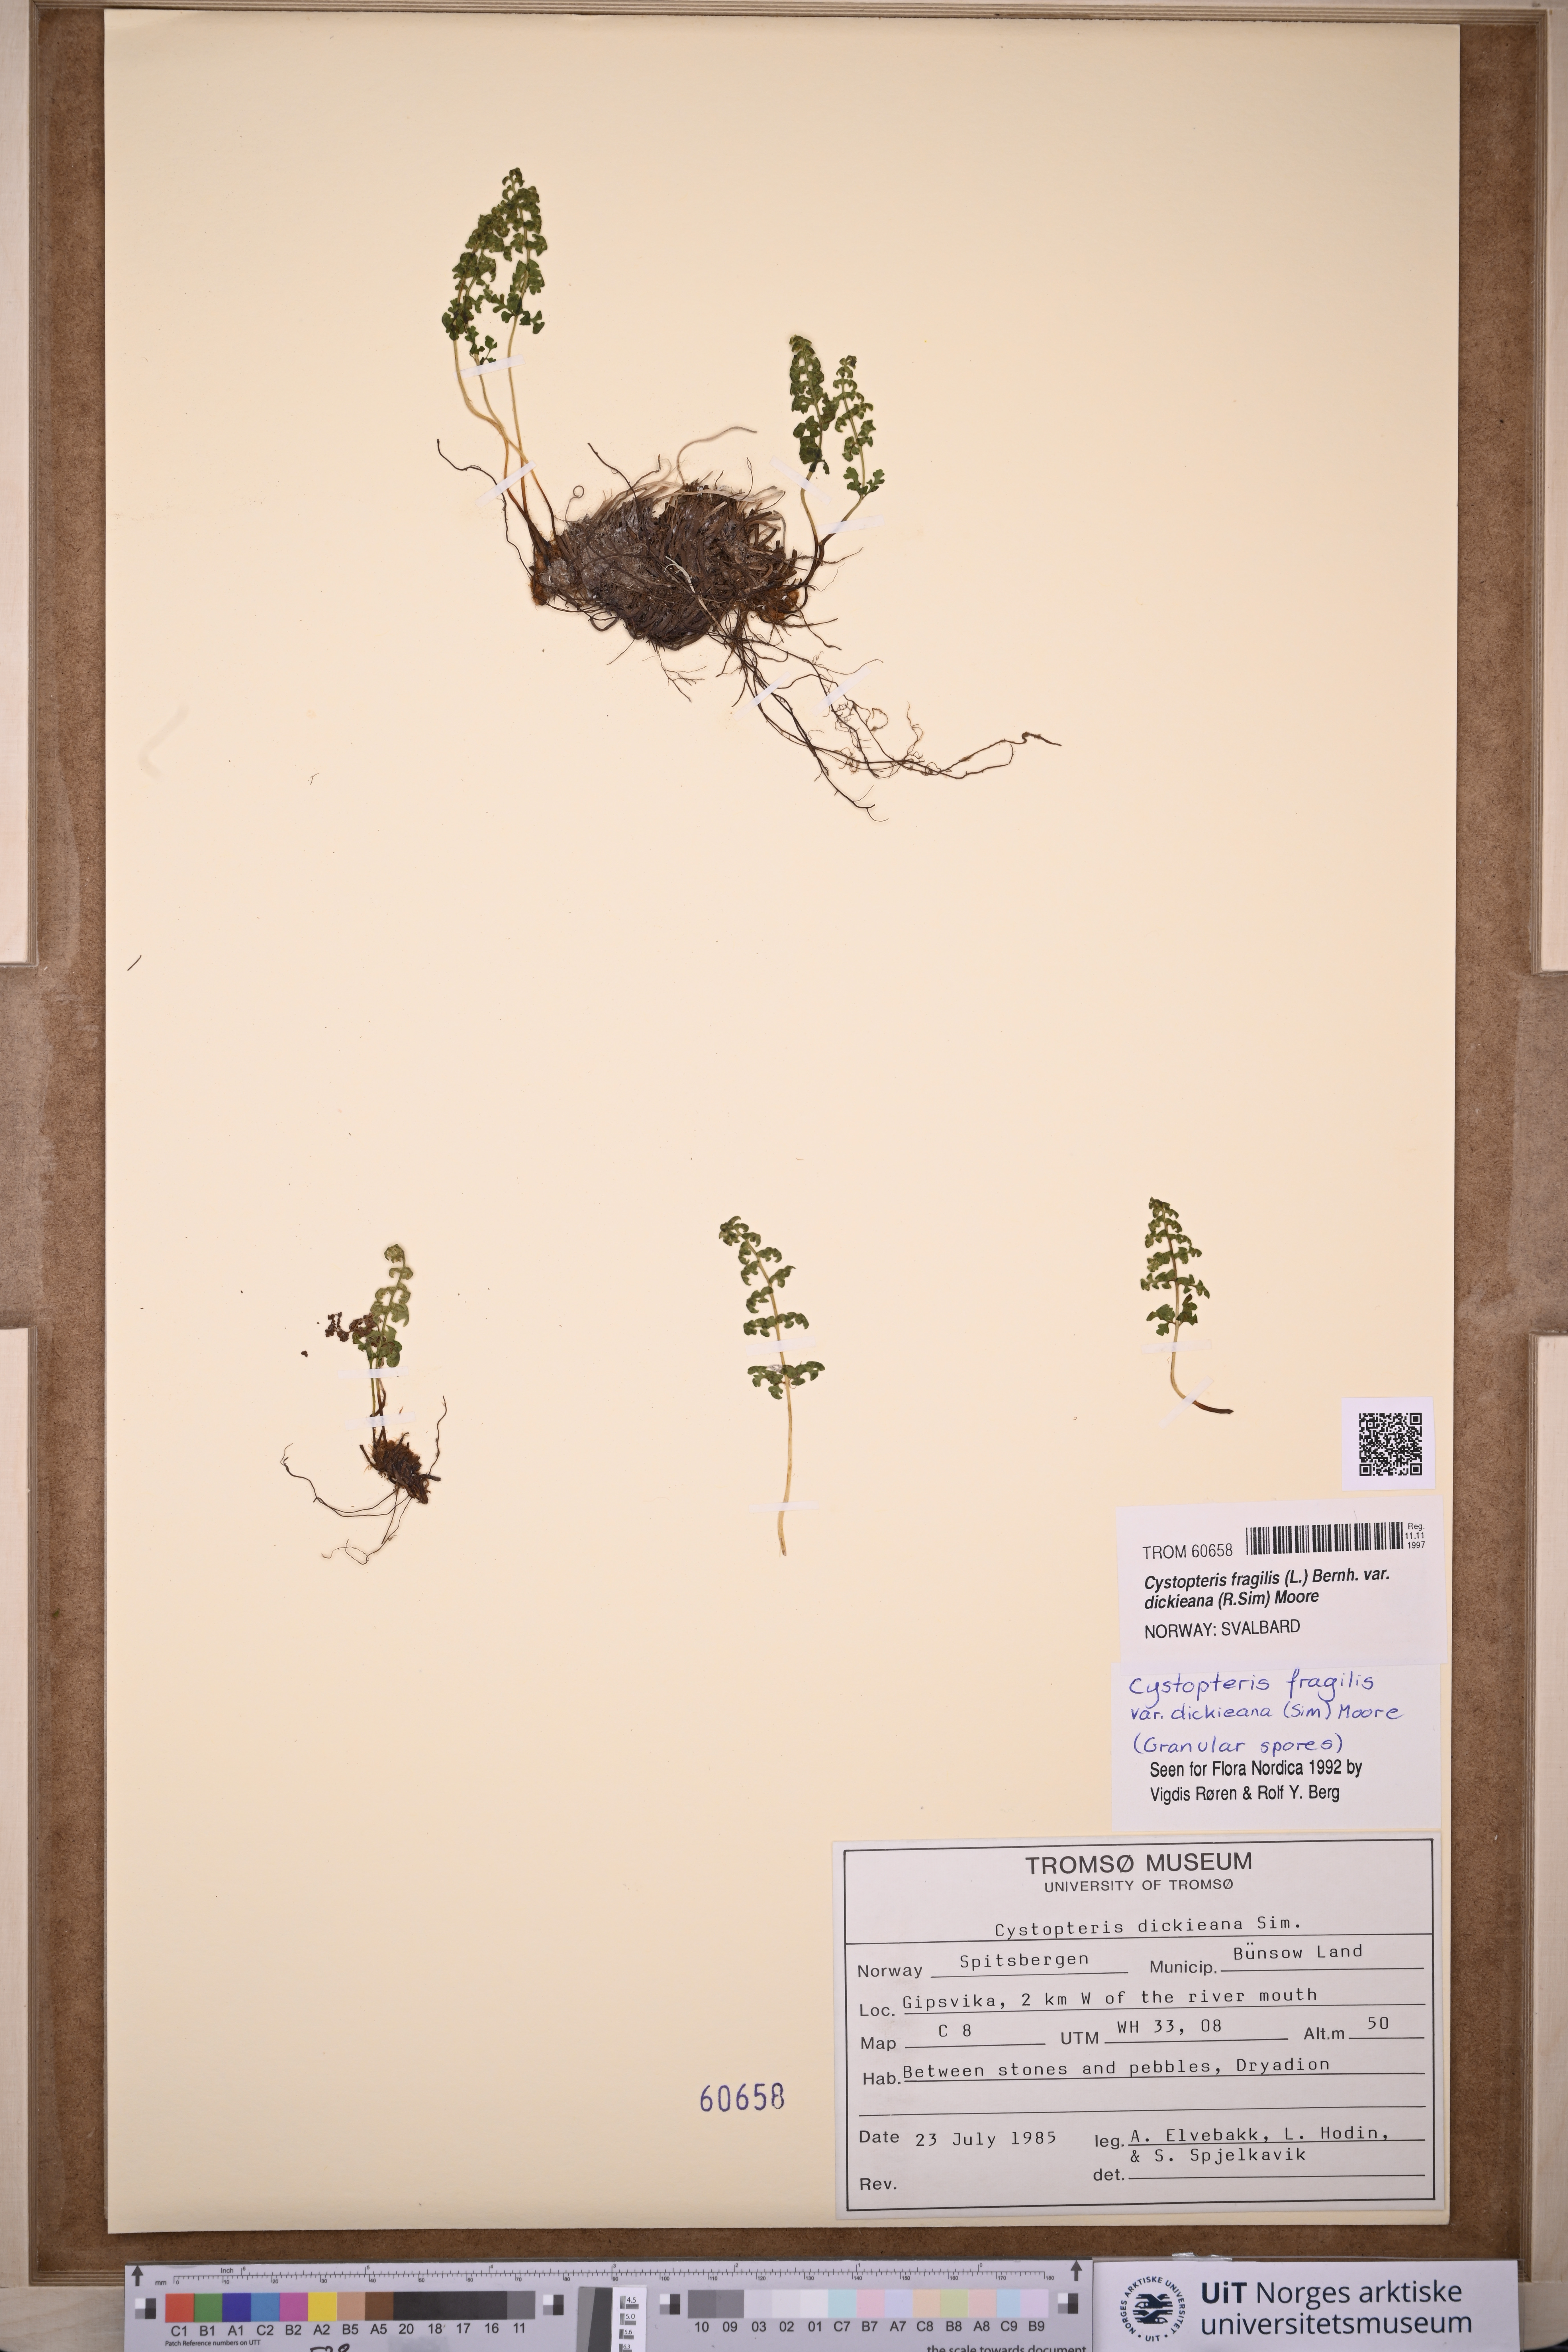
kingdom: Plantae
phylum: Tracheophyta
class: Polypodiopsida
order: Polypodiales
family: Cystopteridaceae
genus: Cystopteris
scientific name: Cystopteris dickieana
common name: Dickie's bladder-fern
